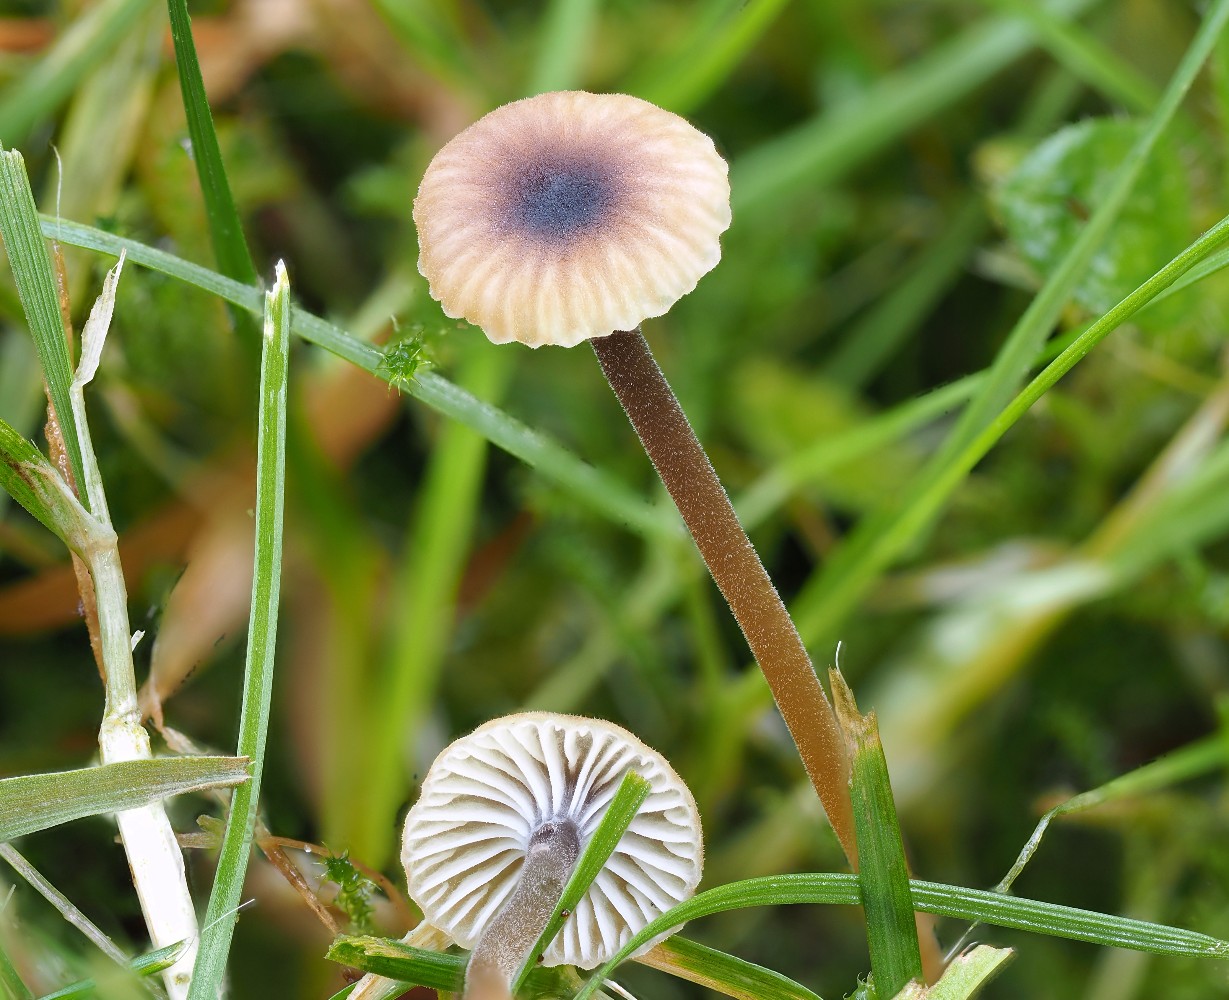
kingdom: Fungi
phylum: Basidiomycota
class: Agaricomycetes
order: Hymenochaetales
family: Rickenellaceae
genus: Rickenella
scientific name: Rickenella swartzii
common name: finstokket mosnavlehat
